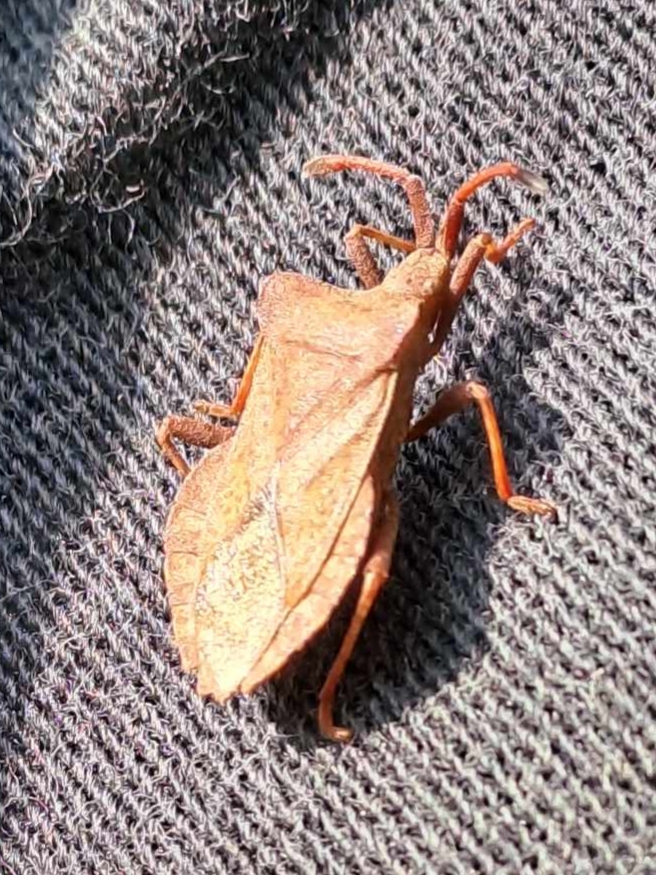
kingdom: Animalia
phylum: Arthropoda
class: Insecta
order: Hemiptera
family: Coreidae
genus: Coreus
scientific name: Coreus marginatus
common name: Skræppetæge
